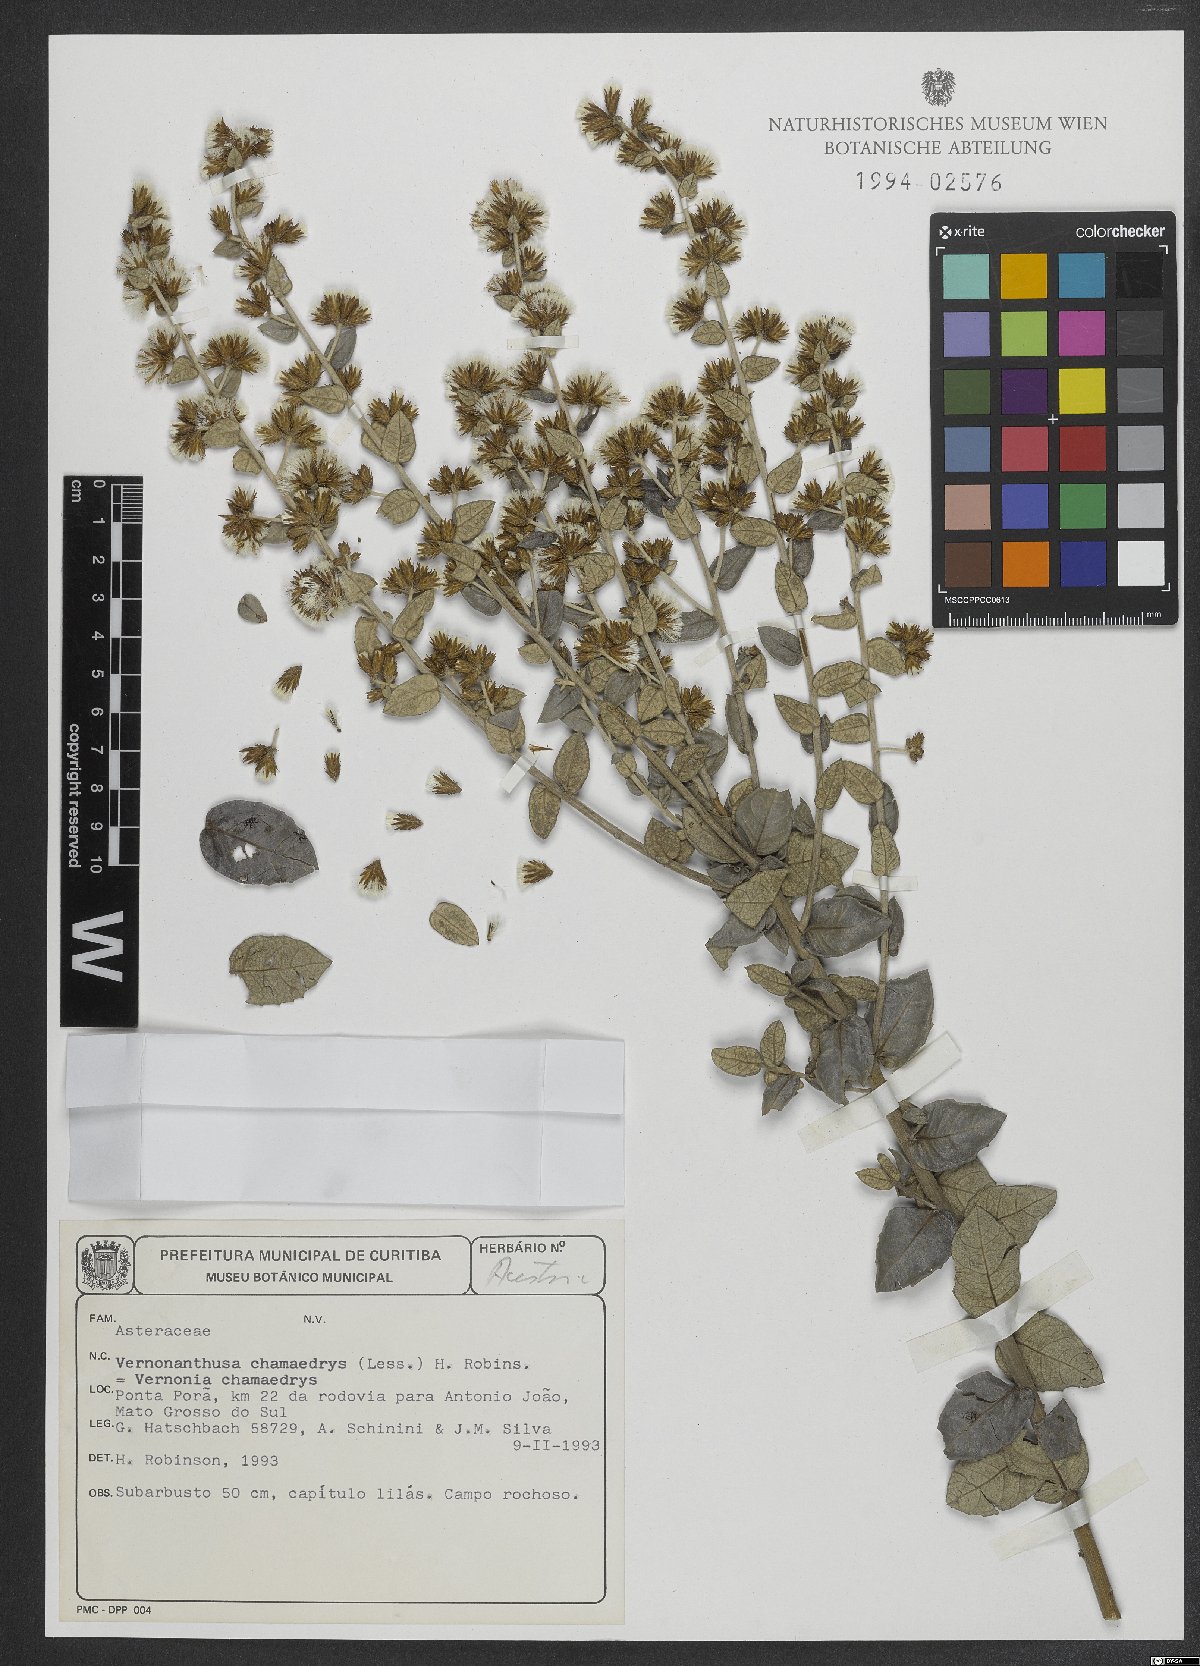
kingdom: Plantae
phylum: Tracheophyta
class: Magnoliopsida
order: Asterales
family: Asteraceae
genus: Vernonanthura
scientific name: Vernonanthura chamaedrys
